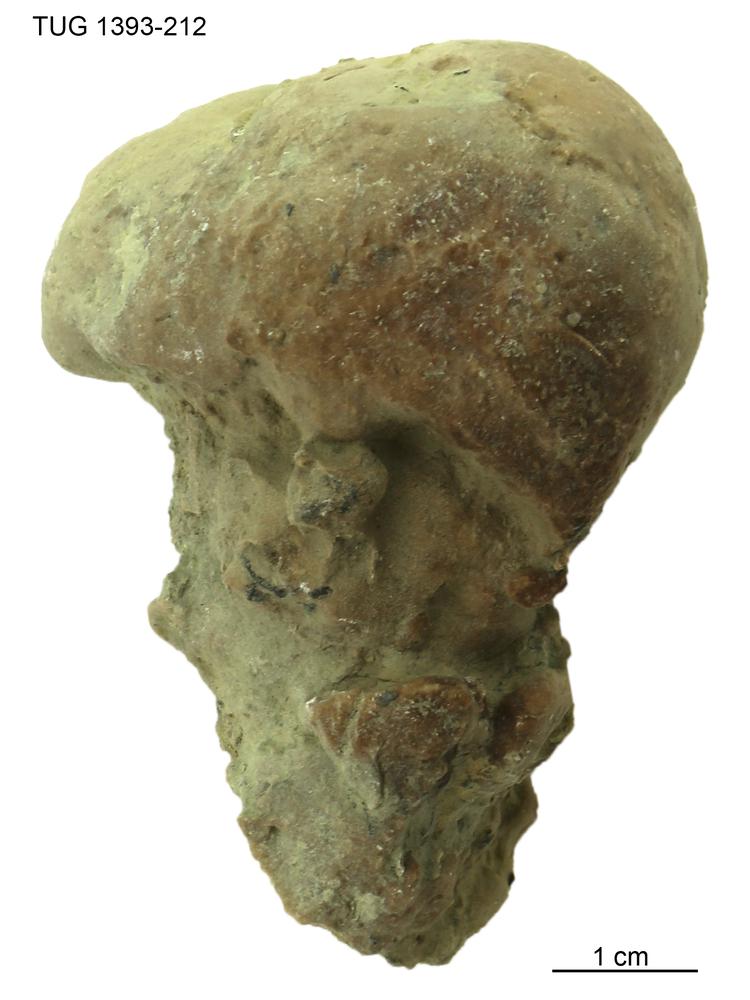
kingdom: Animalia
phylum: Porifera
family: Chaetetidae
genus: Solenopora
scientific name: Solenopora
